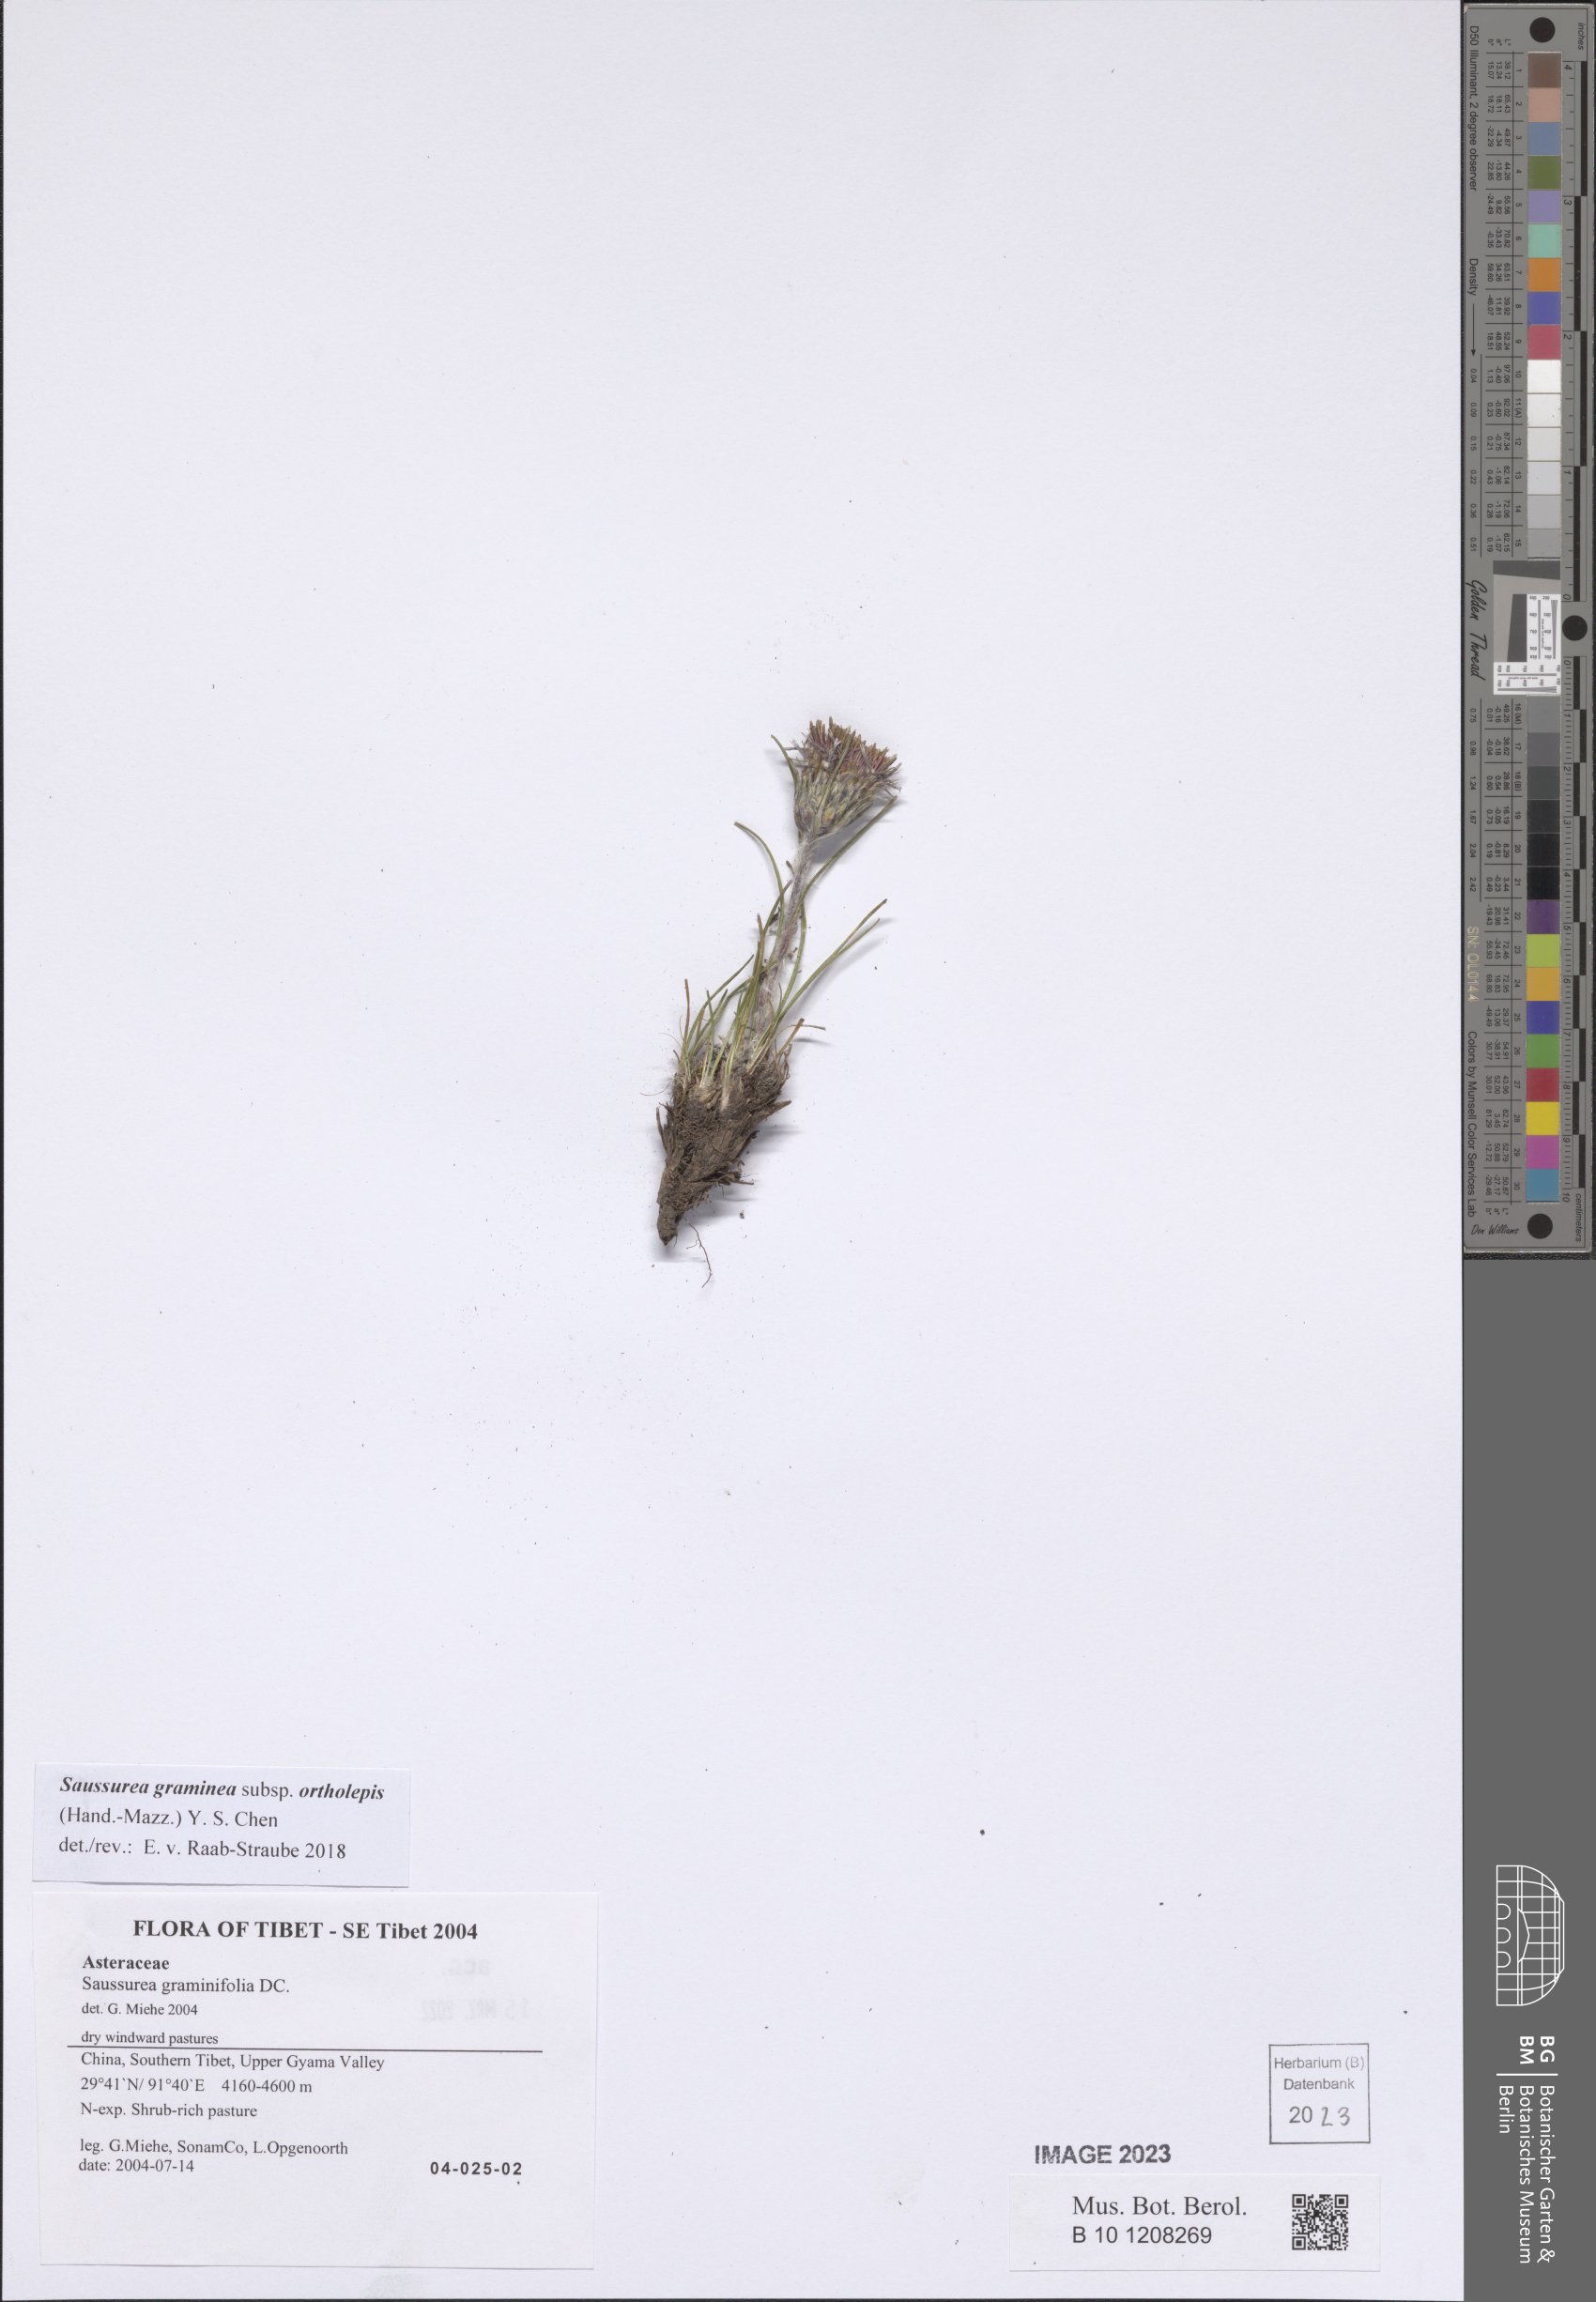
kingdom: Plantae
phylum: Tracheophyta
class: Magnoliopsida
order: Asterales
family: Asteraceae
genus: Saussurea
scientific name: Saussurea graminea
